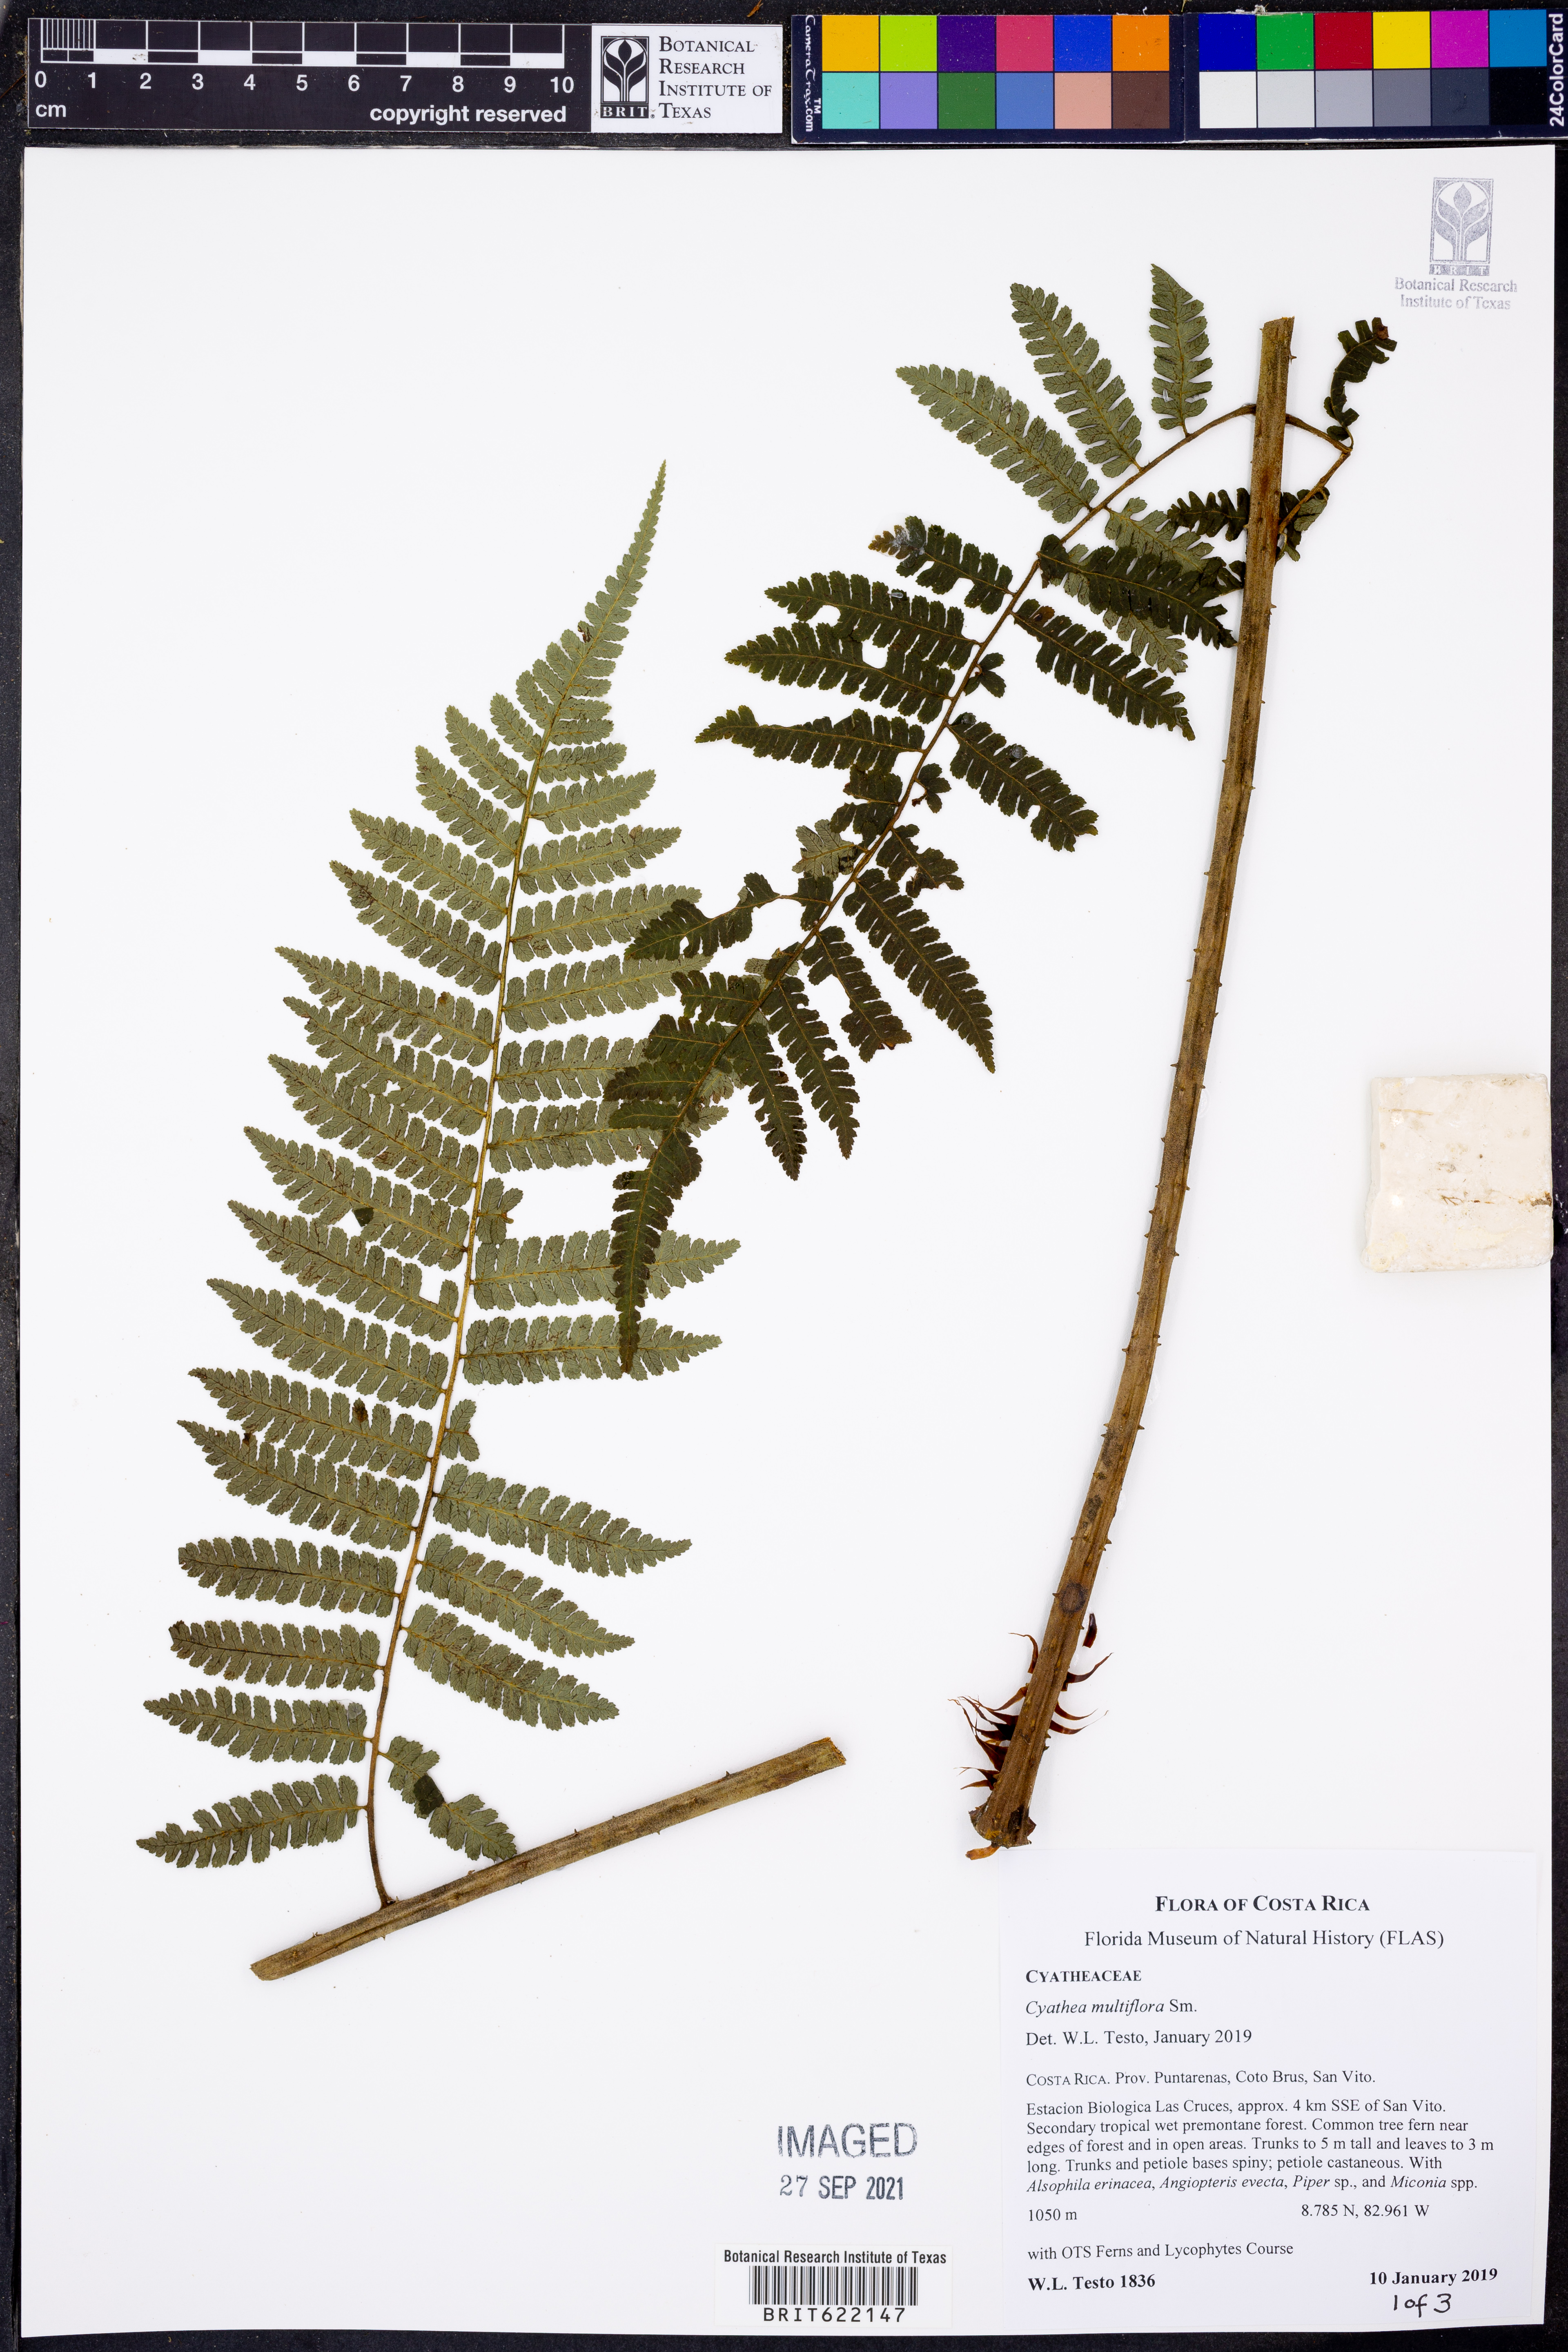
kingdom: Plantae
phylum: Tracheophyta
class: Polypodiopsida
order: Cyatheales
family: Cyatheaceae
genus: Cyathea
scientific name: Cyathea multiflora
